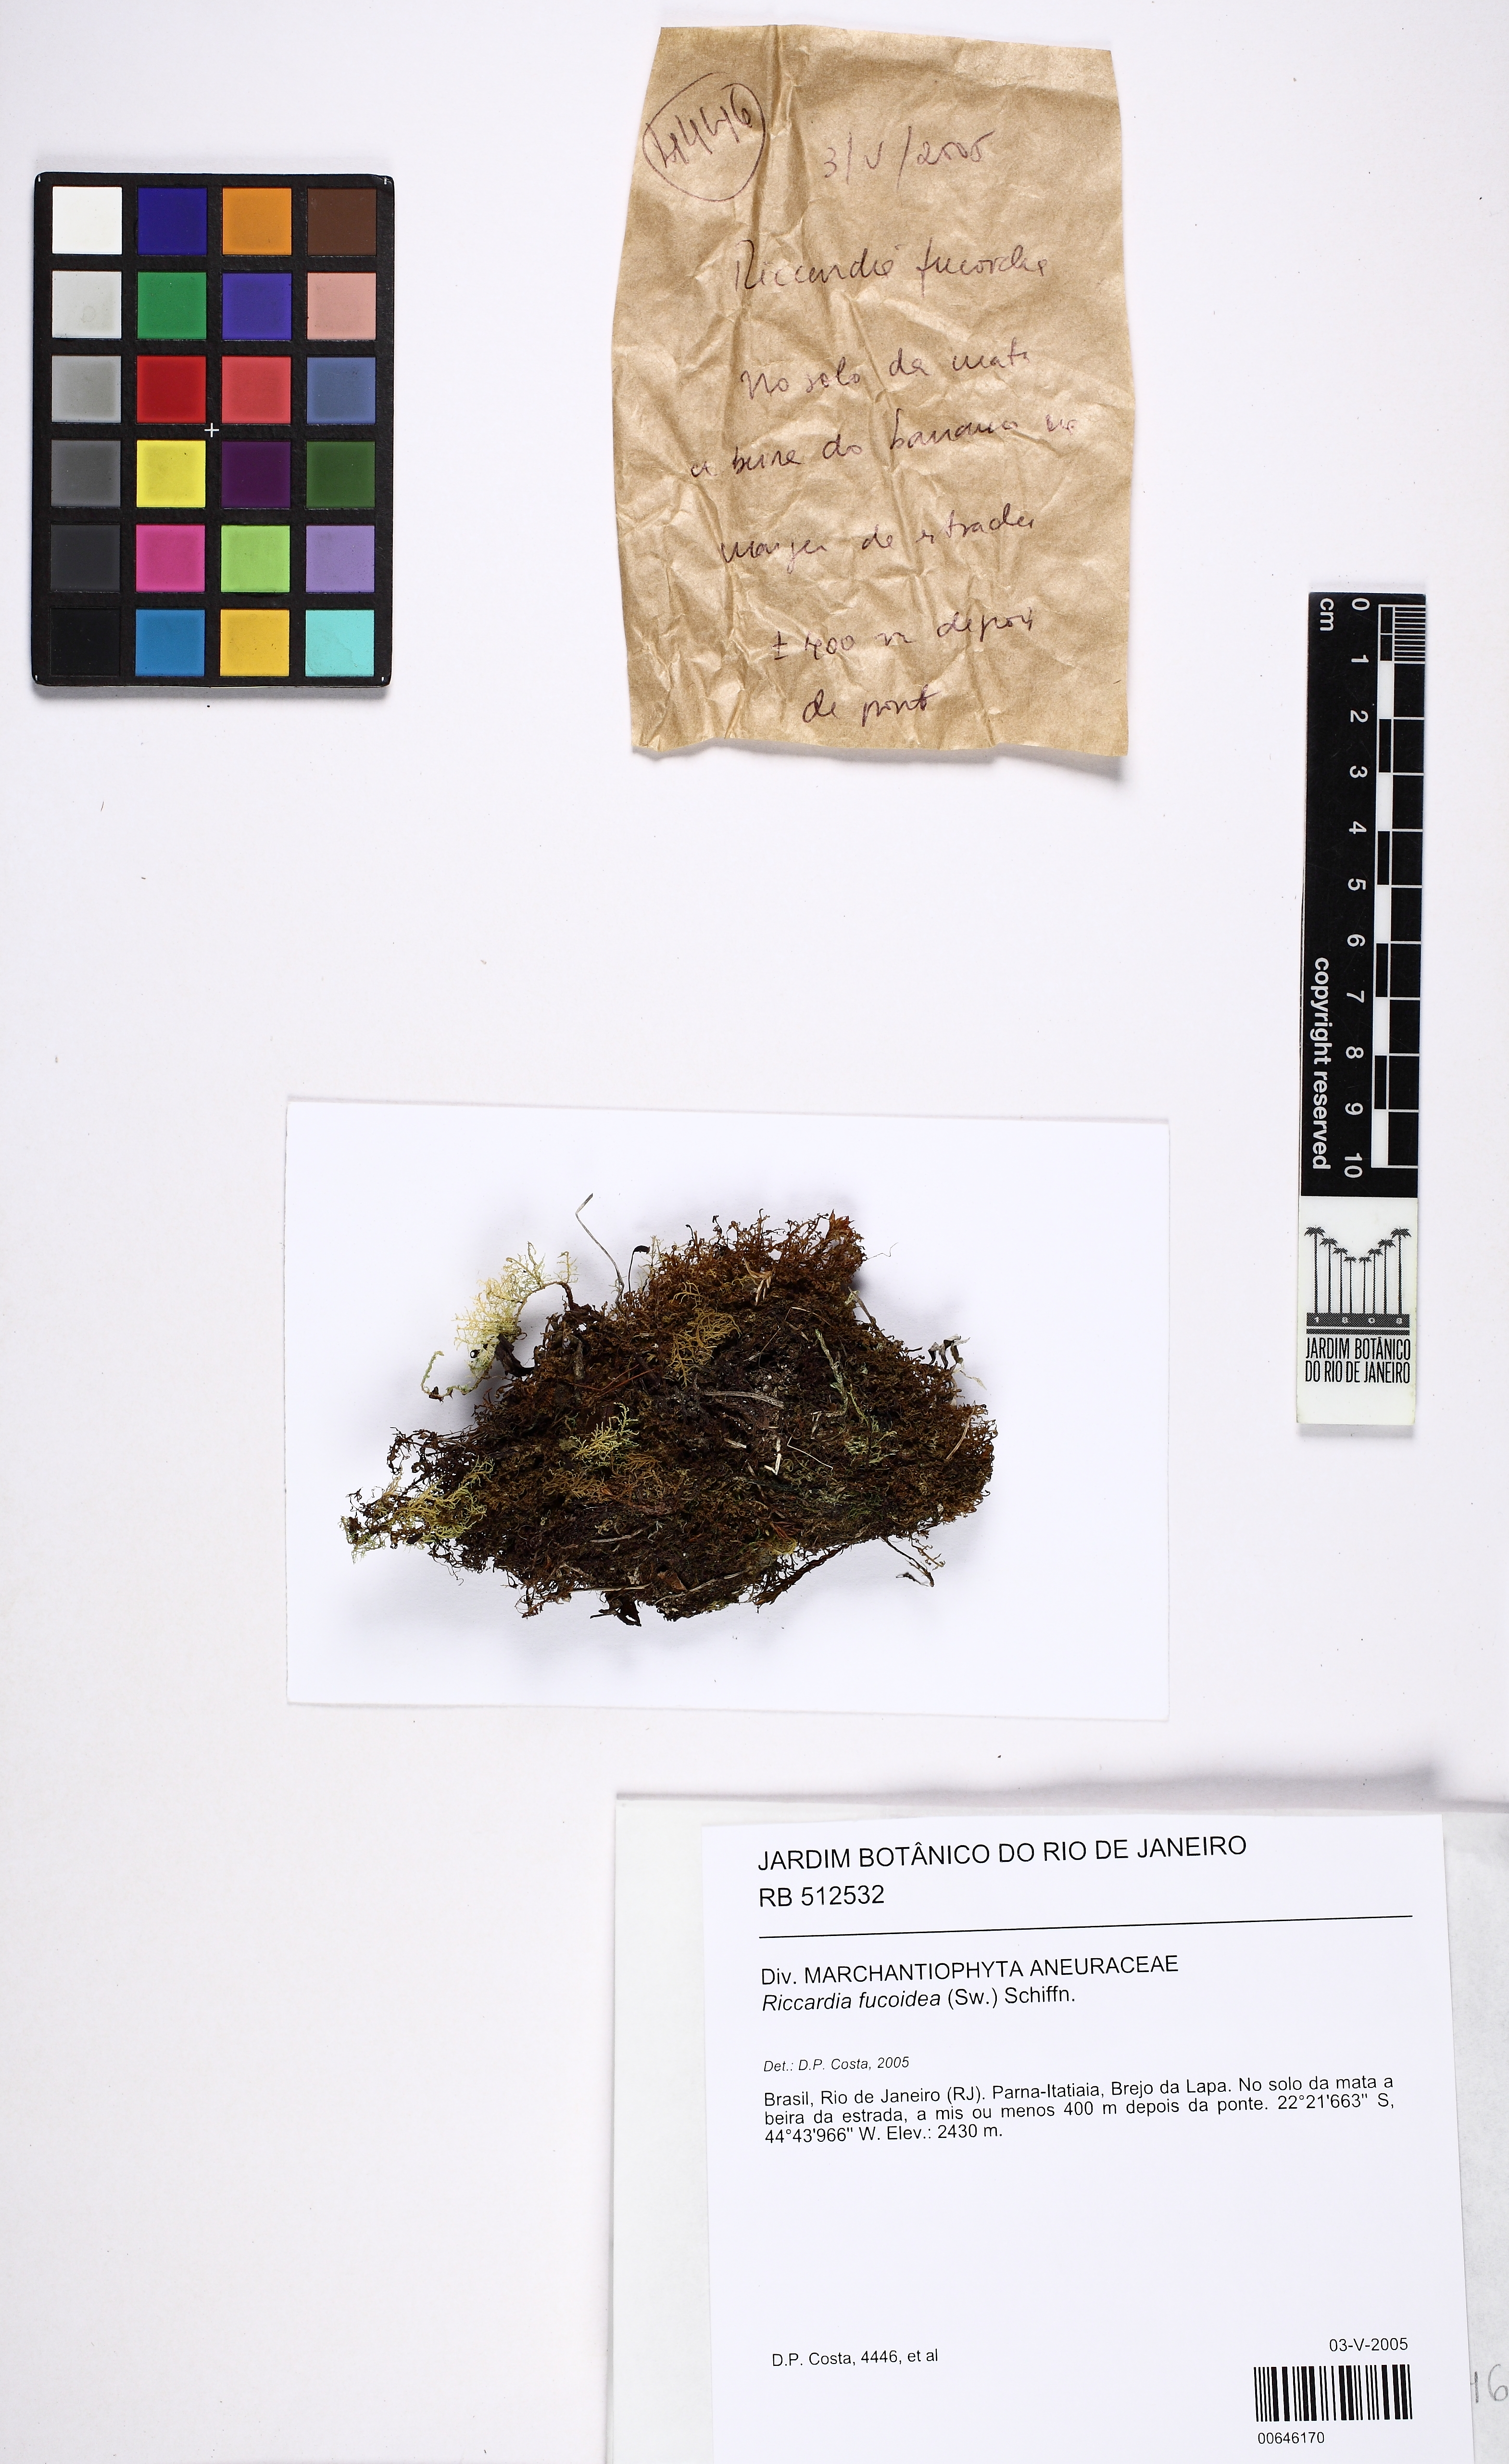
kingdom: Plantae
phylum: Marchantiophyta
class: Jungermanniopsida
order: Metzgeriales
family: Aneuraceae
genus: Riccardia
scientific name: Riccardia fucoidea
